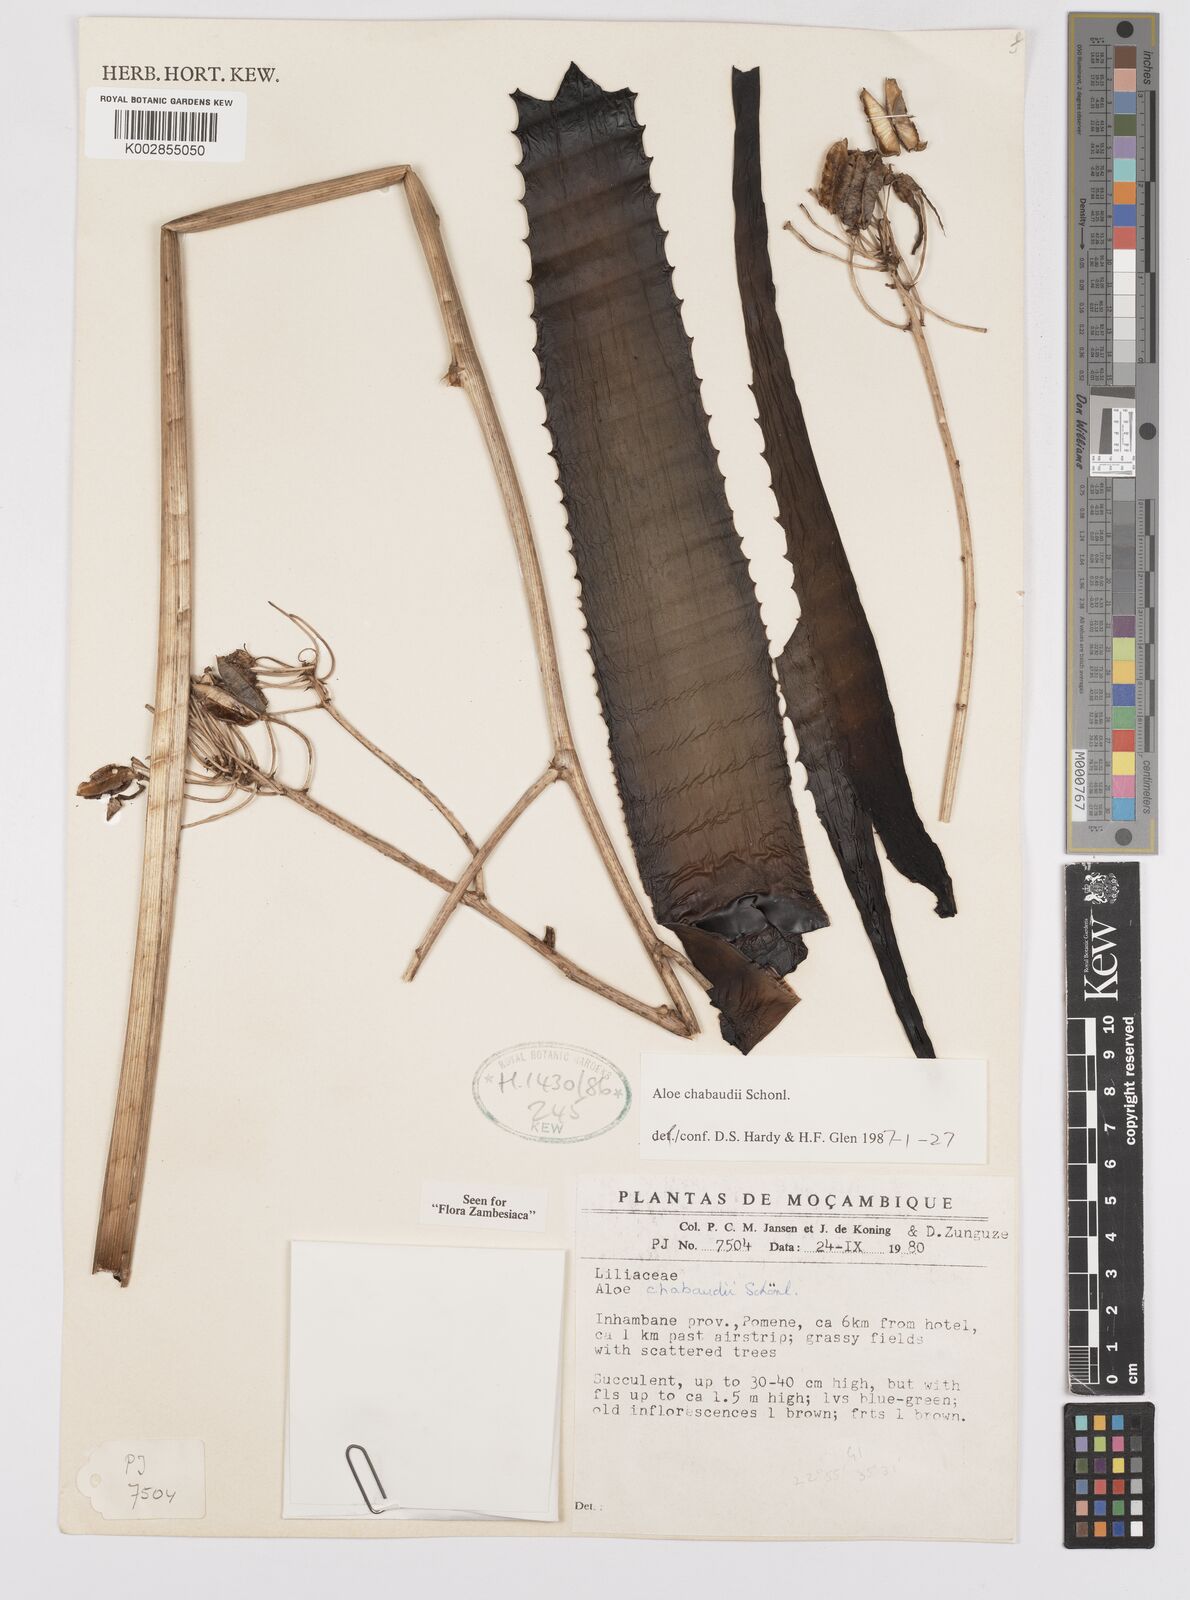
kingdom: Plantae
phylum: Tracheophyta
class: Liliopsida
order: Asparagales
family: Asphodelaceae
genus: Aloe
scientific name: Aloe chabaudii
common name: Chabaud's aloe
